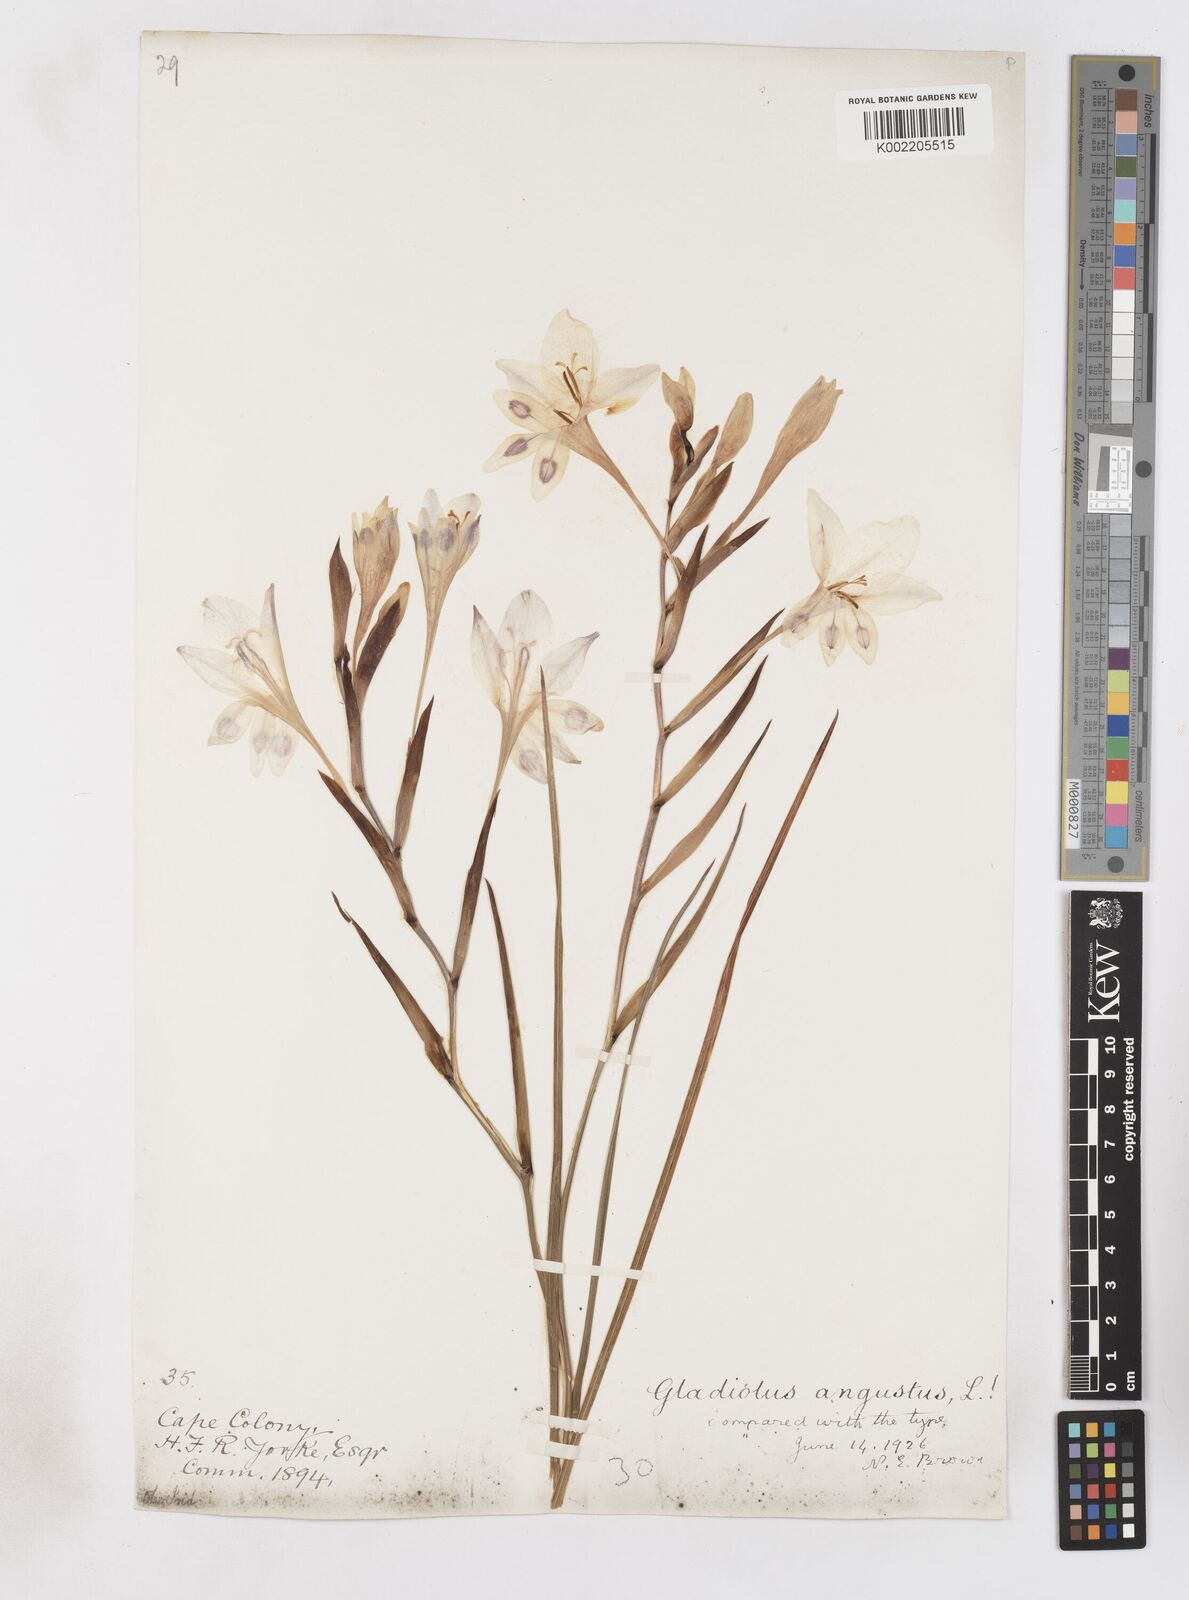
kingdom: Plantae
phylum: Tracheophyta
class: Liliopsida
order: Asparagales
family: Iridaceae
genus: Gladiolus
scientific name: Gladiolus angustus
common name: Painted-lady
